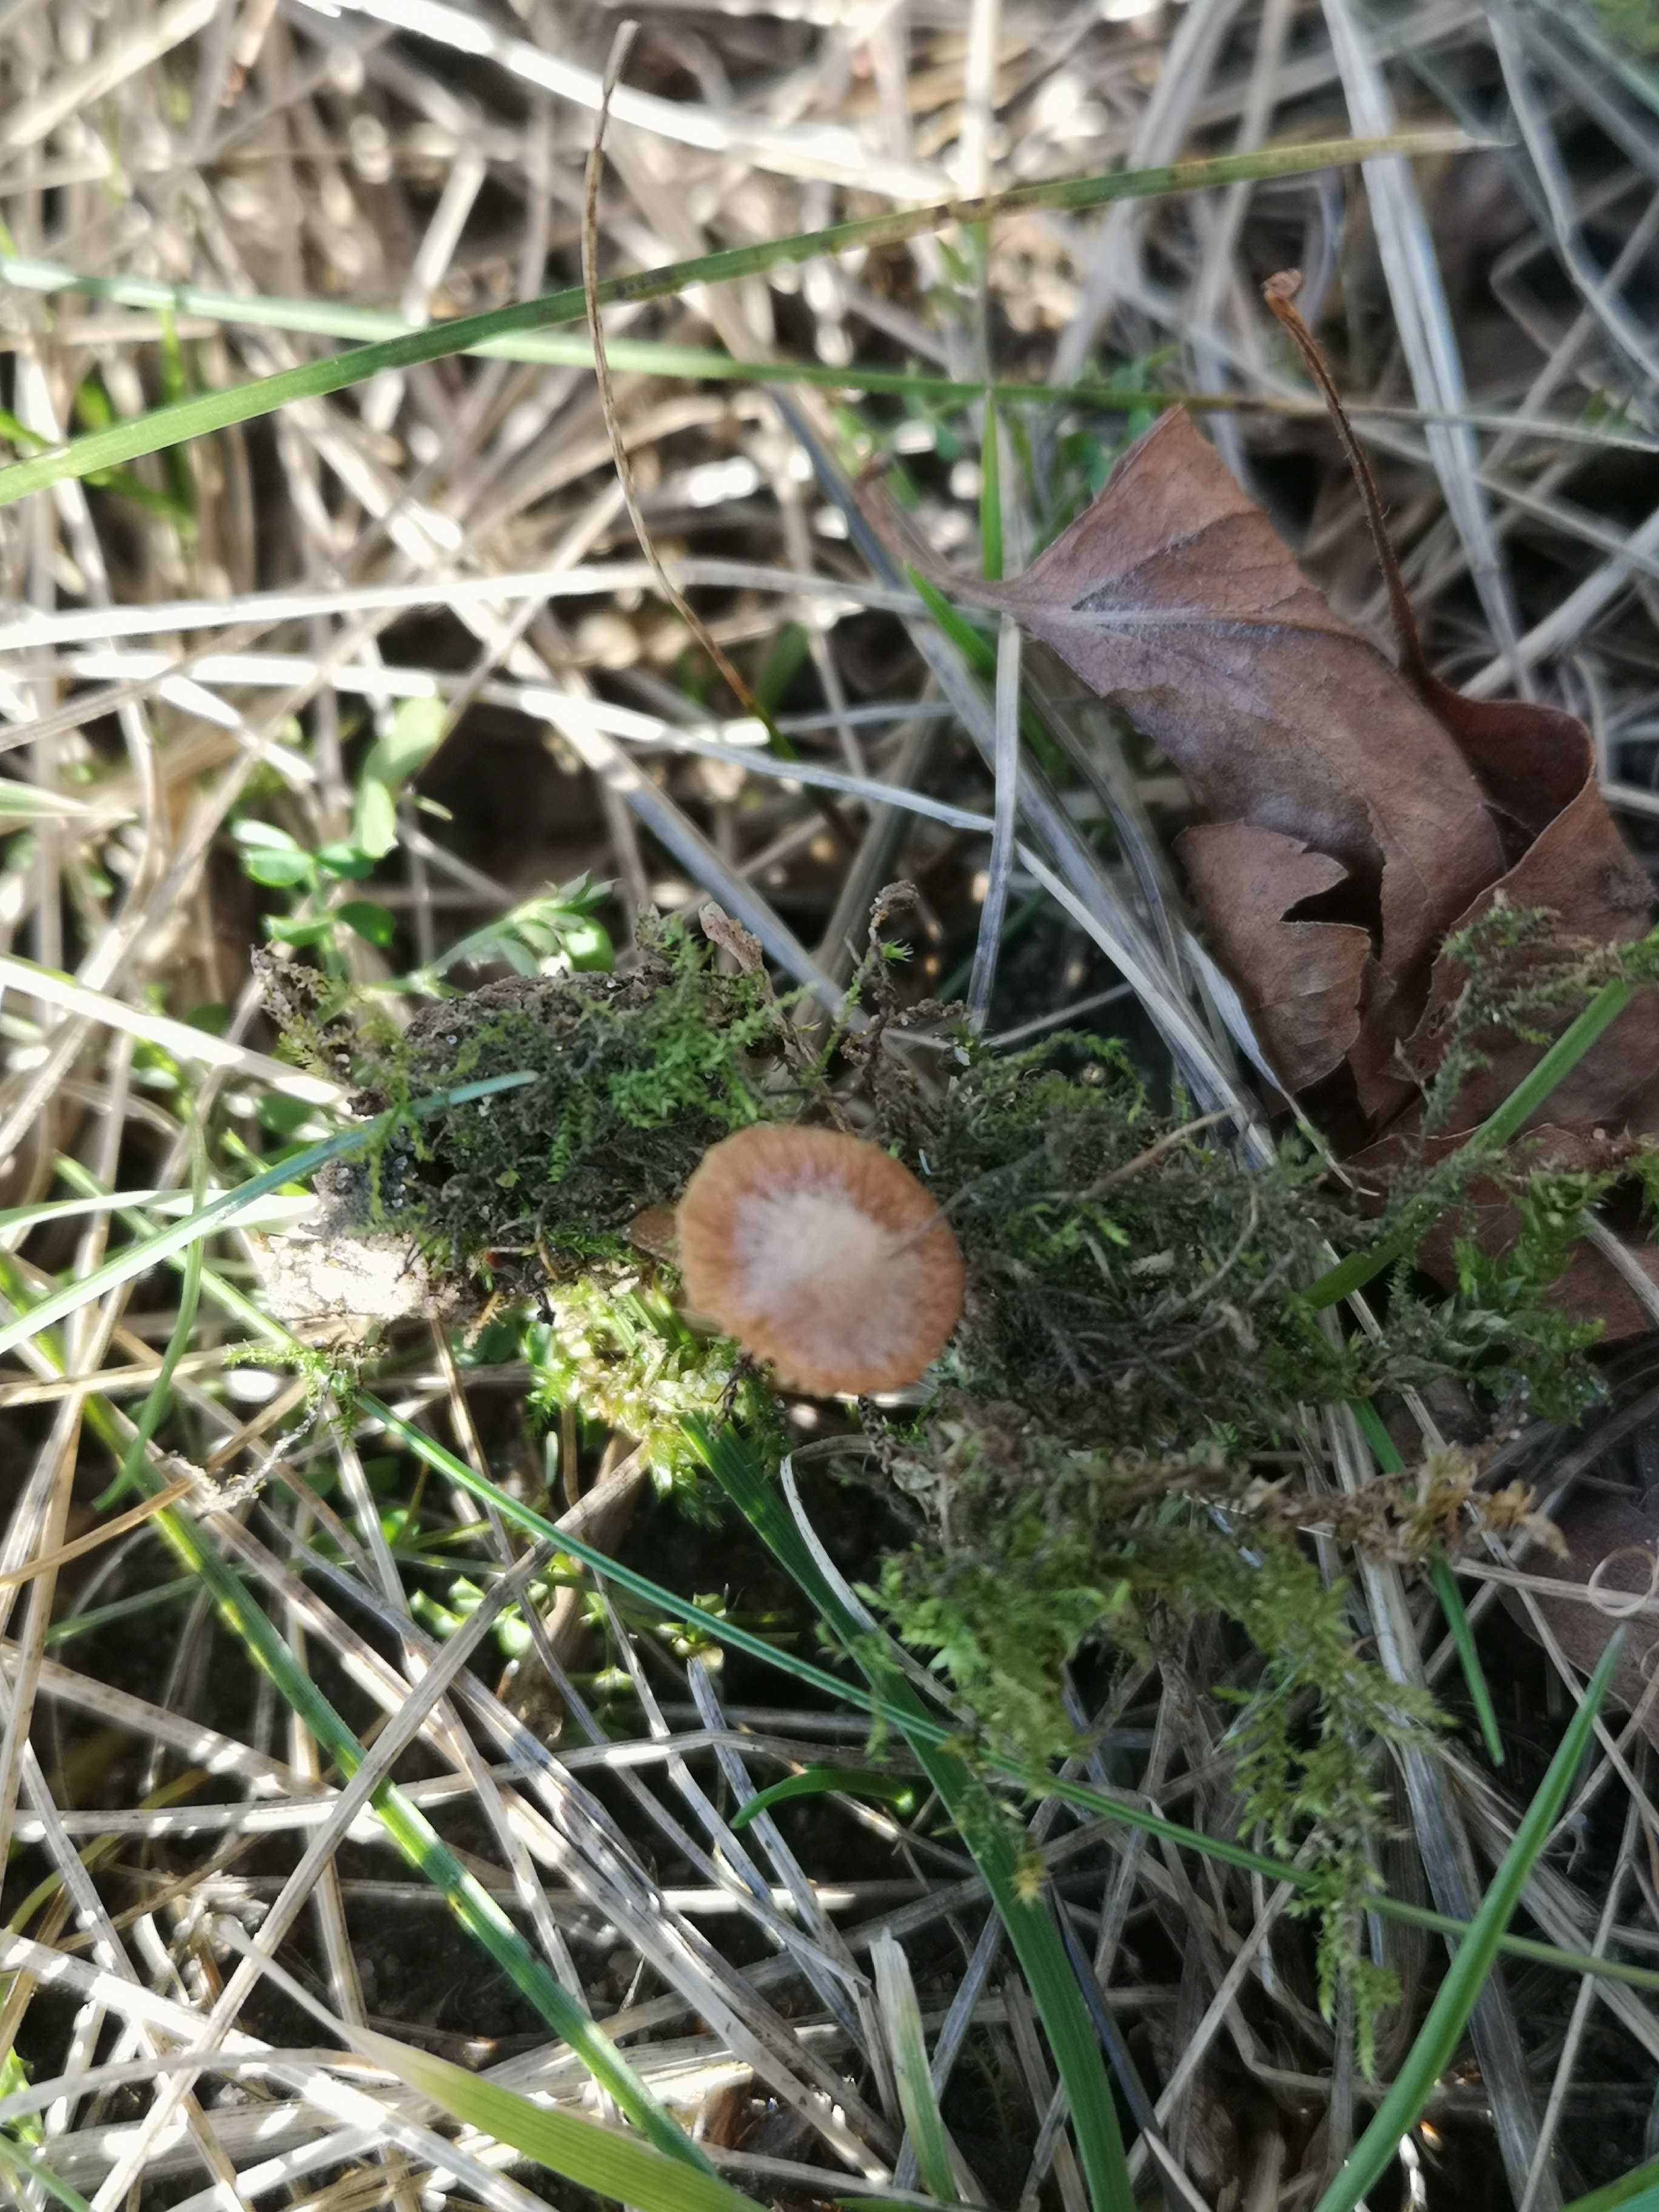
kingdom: Fungi
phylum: Basidiomycota
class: Agaricomycetes
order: Agaricales
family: Tubariaceae
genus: Tubaria
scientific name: Tubaria furfuracea
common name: kliddet fnughat
